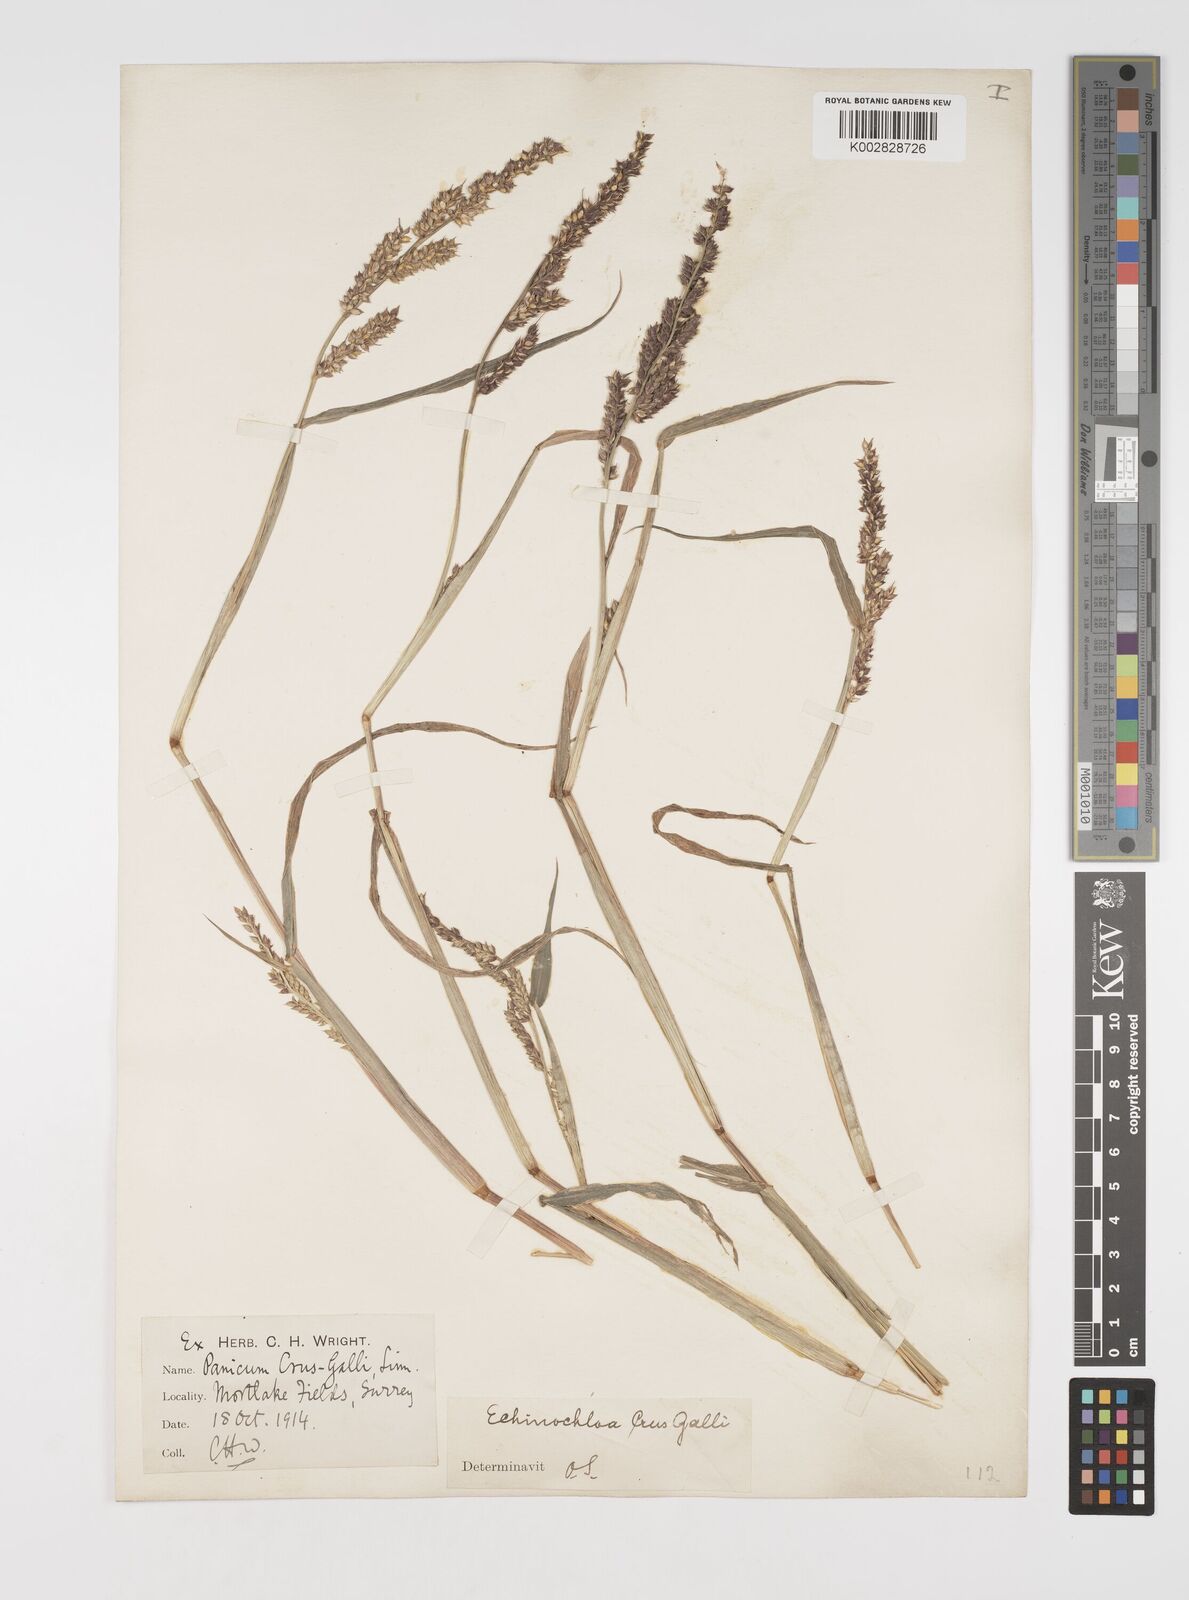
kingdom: Plantae
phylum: Tracheophyta
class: Liliopsida
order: Poales
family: Poaceae
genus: Echinochloa
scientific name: Echinochloa crus-galli
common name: Cockspur
